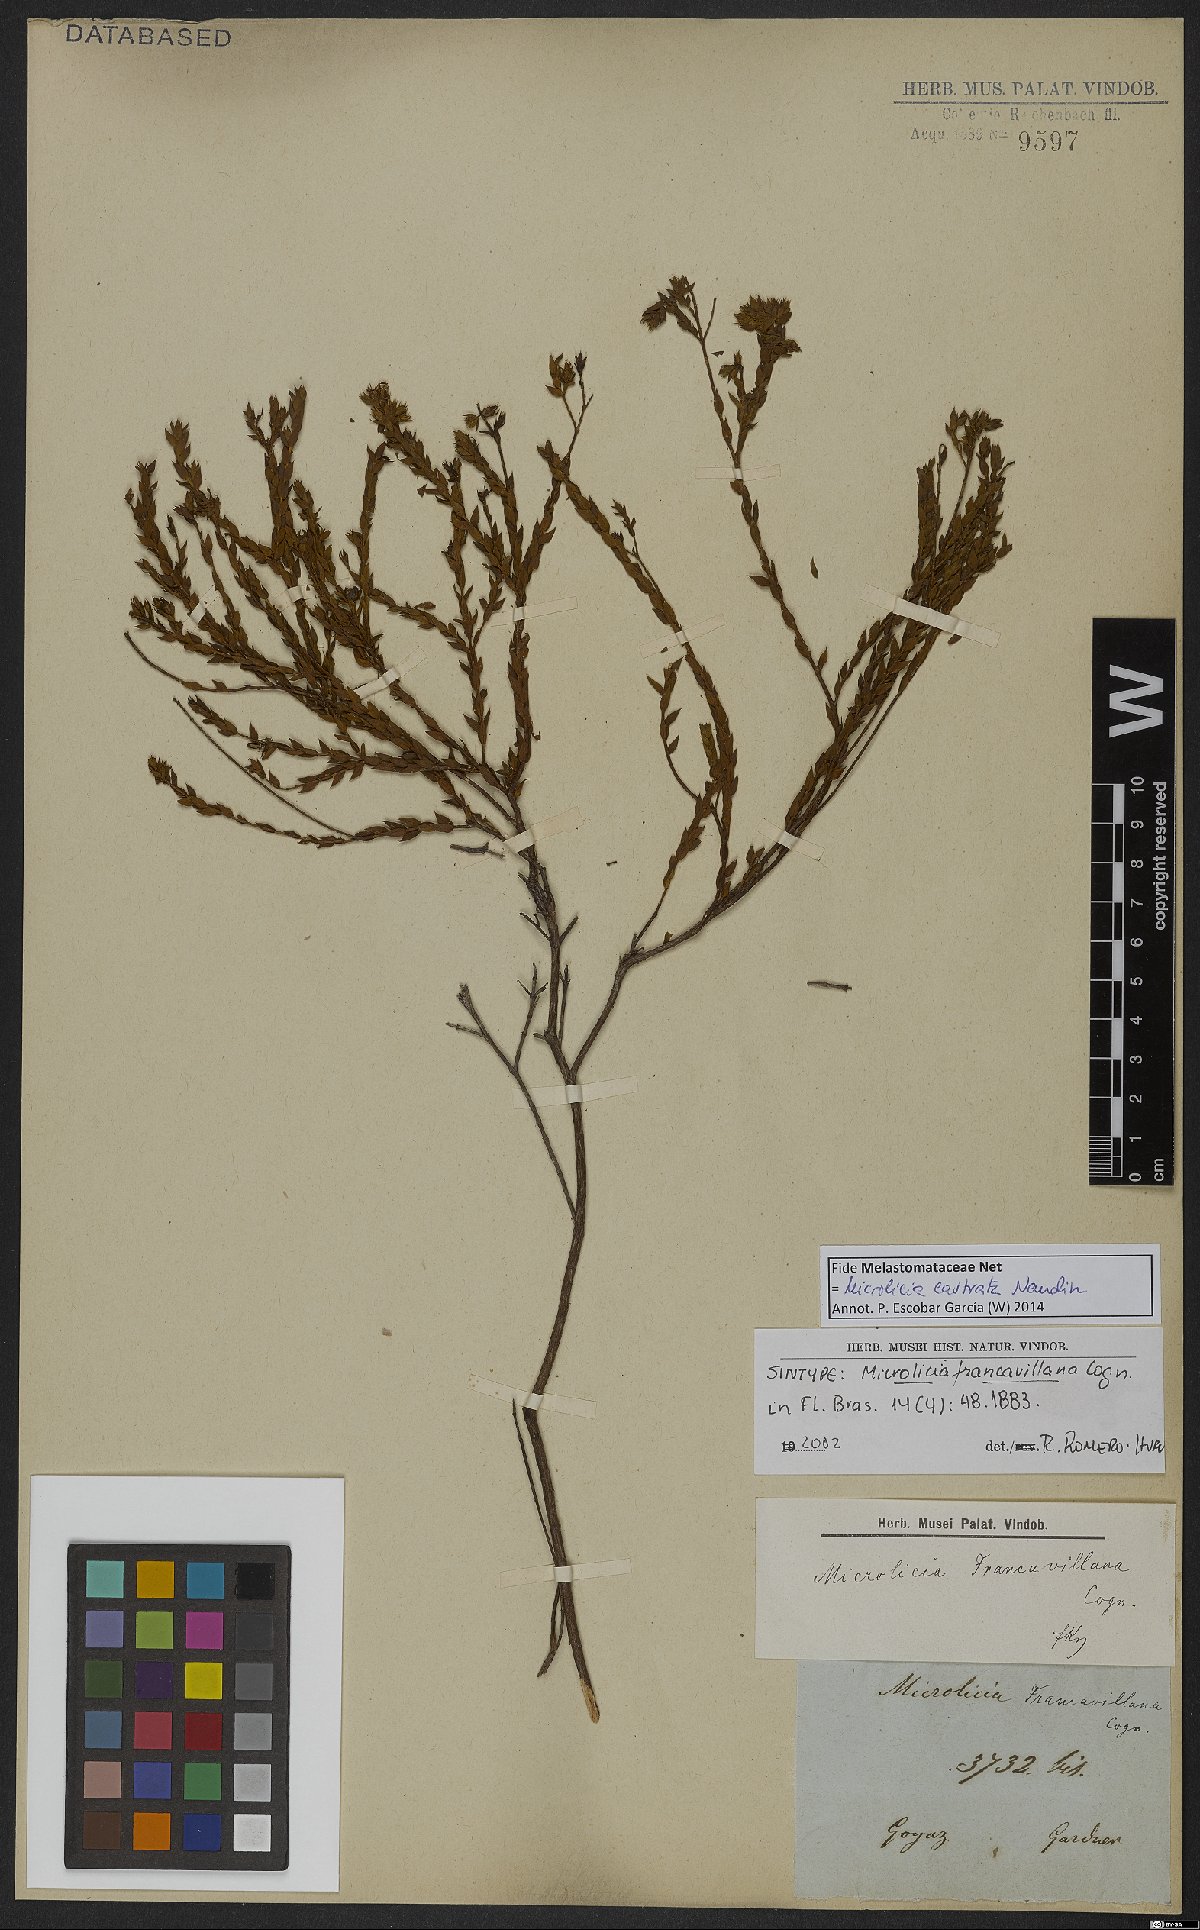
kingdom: Plantae
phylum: Tracheophyta
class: Magnoliopsida
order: Myrtales
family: Melastomataceae
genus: Microlicia
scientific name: Microlicia castrata
